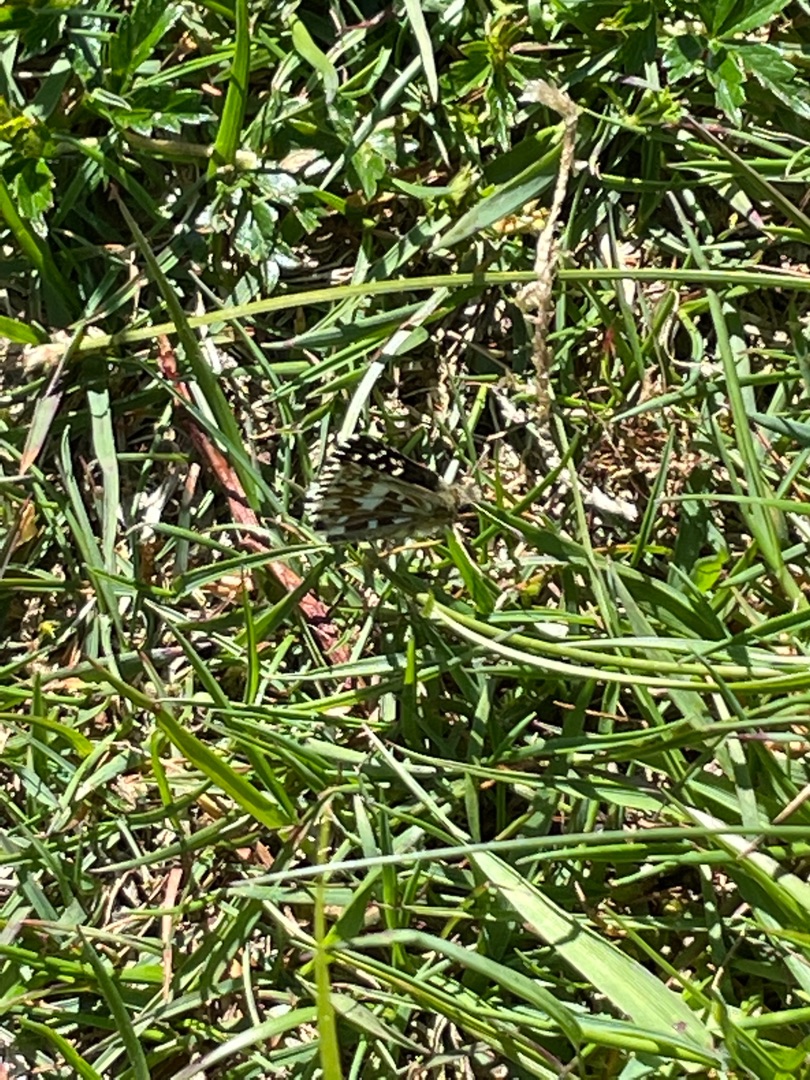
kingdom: Animalia
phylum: Arthropoda
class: Insecta
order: Lepidoptera
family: Hesperiidae
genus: Pyrgus
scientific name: Pyrgus malvae
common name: Spættet bredpande
